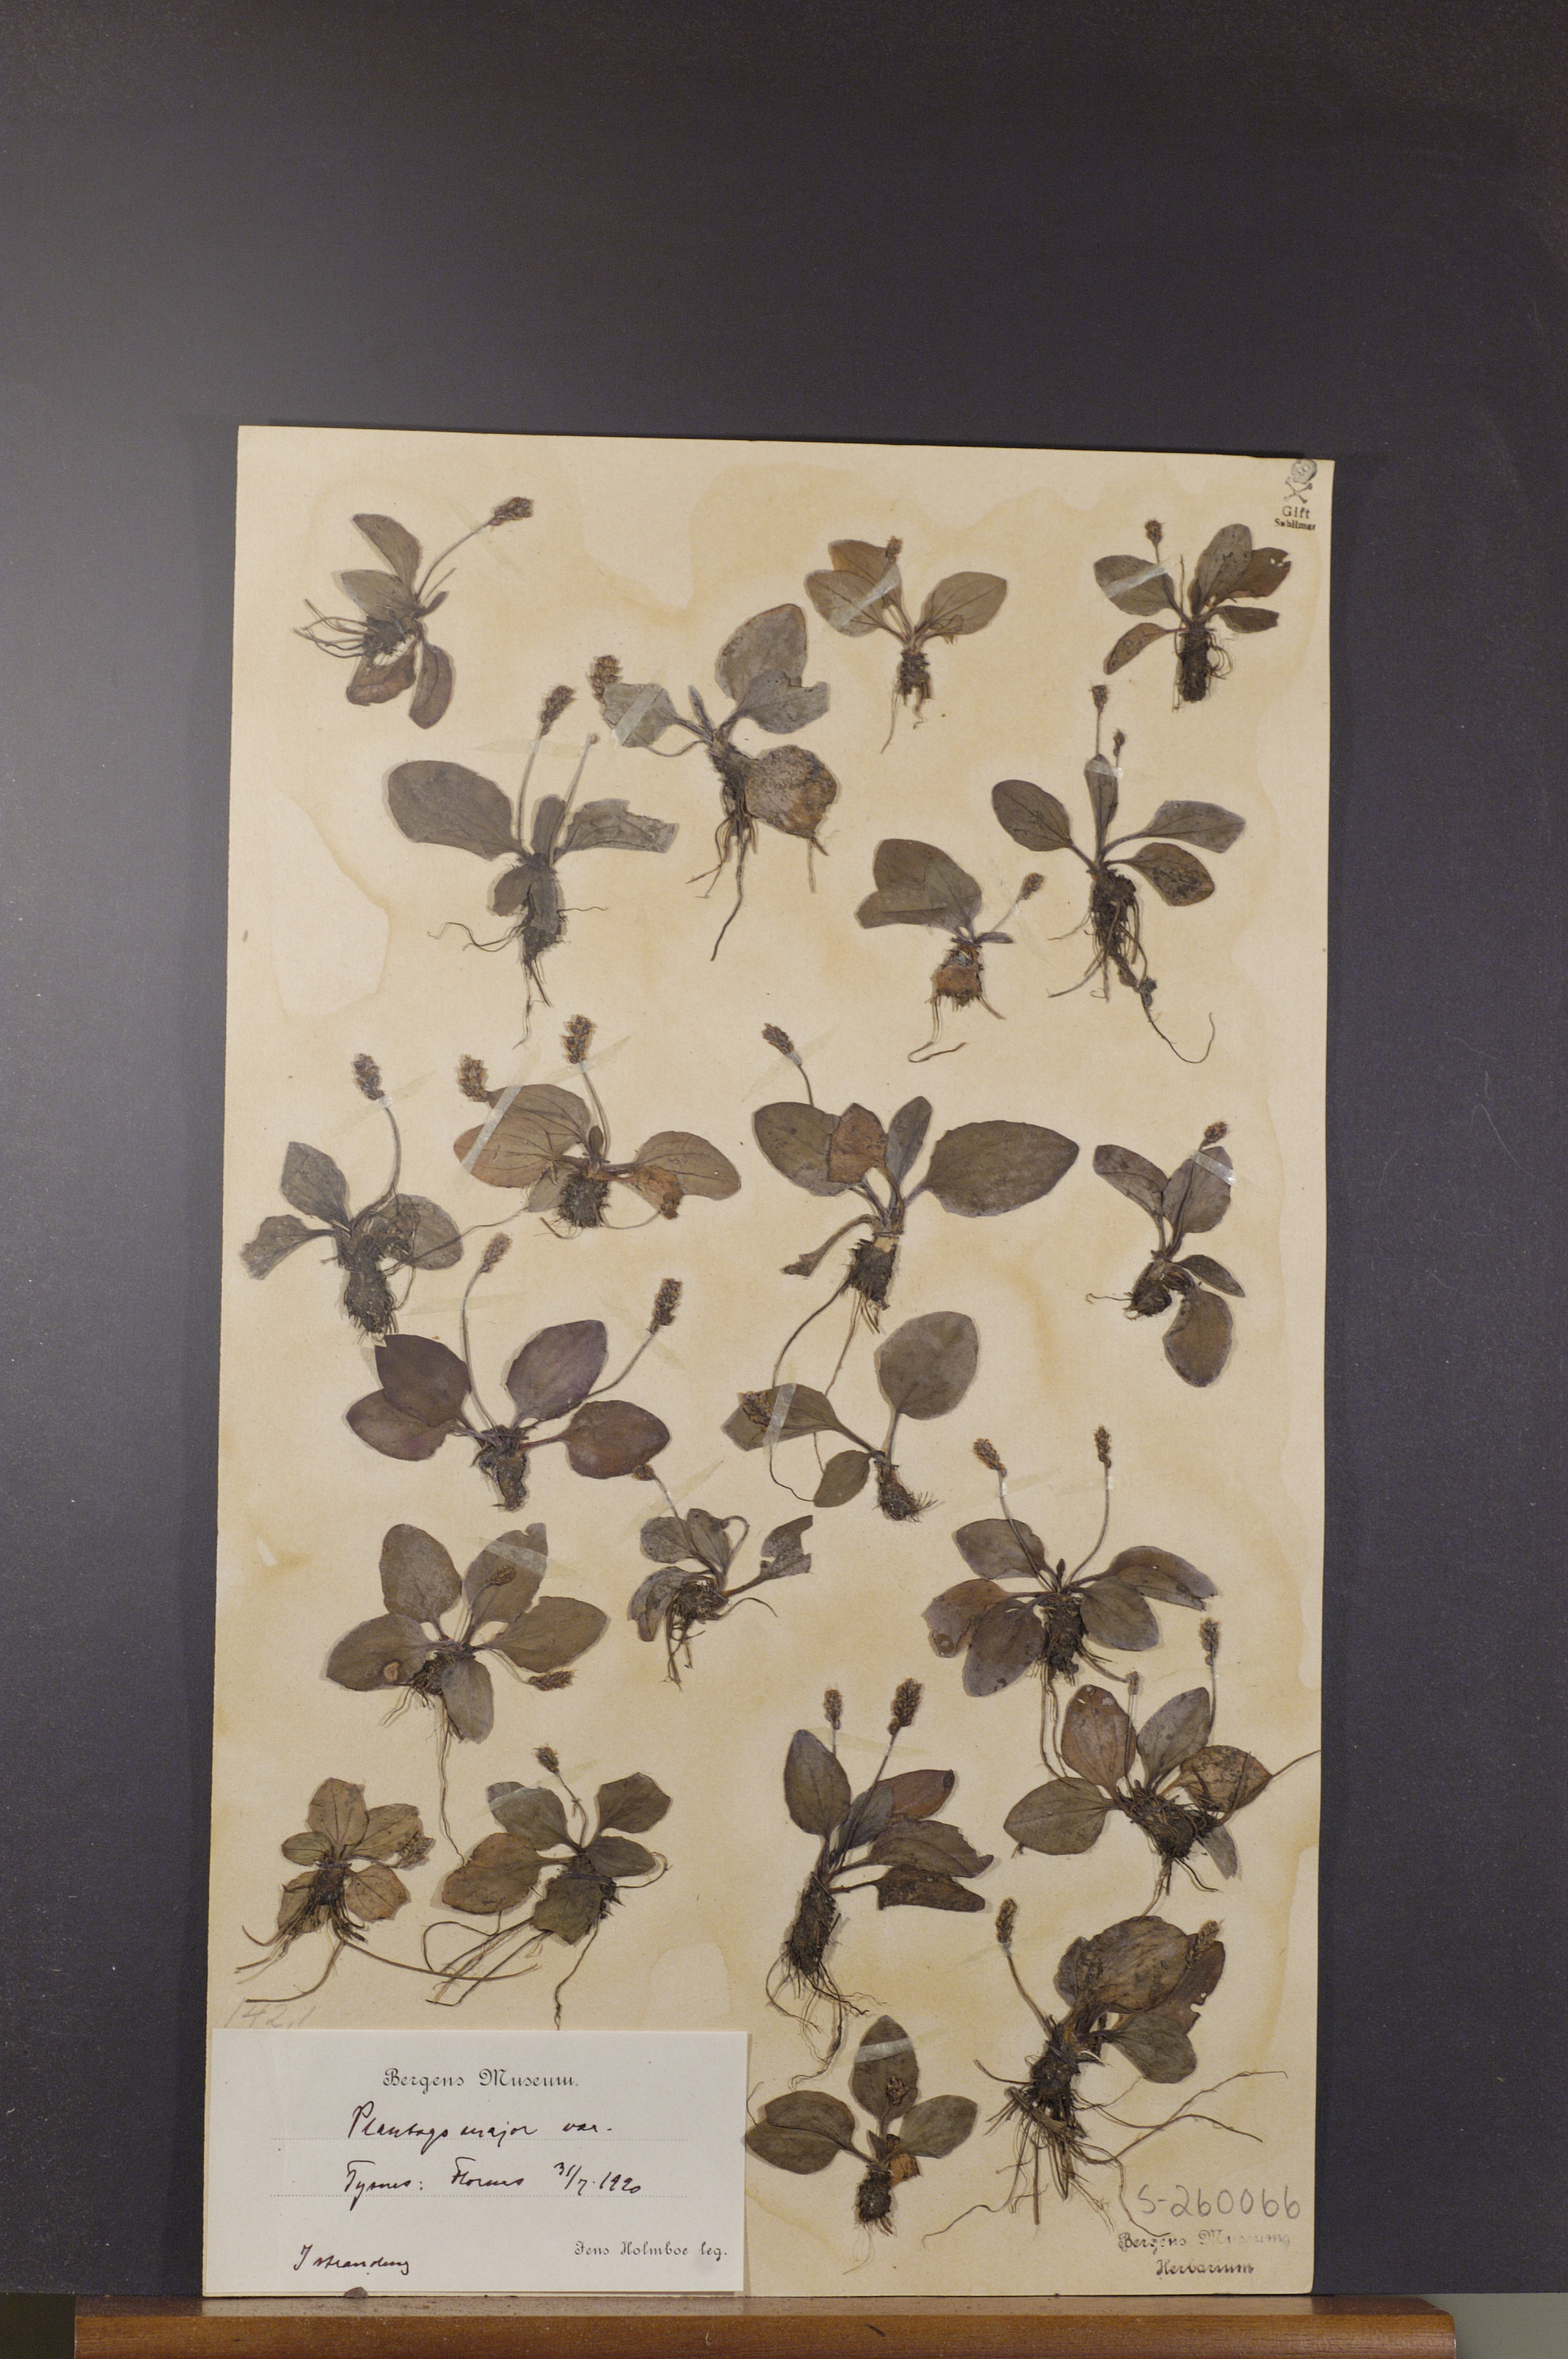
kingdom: Plantae
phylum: Tracheophyta
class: Magnoliopsida
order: Lamiales
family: Plantaginaceae
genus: Plantago
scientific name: Plantago major
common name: Common plantain
